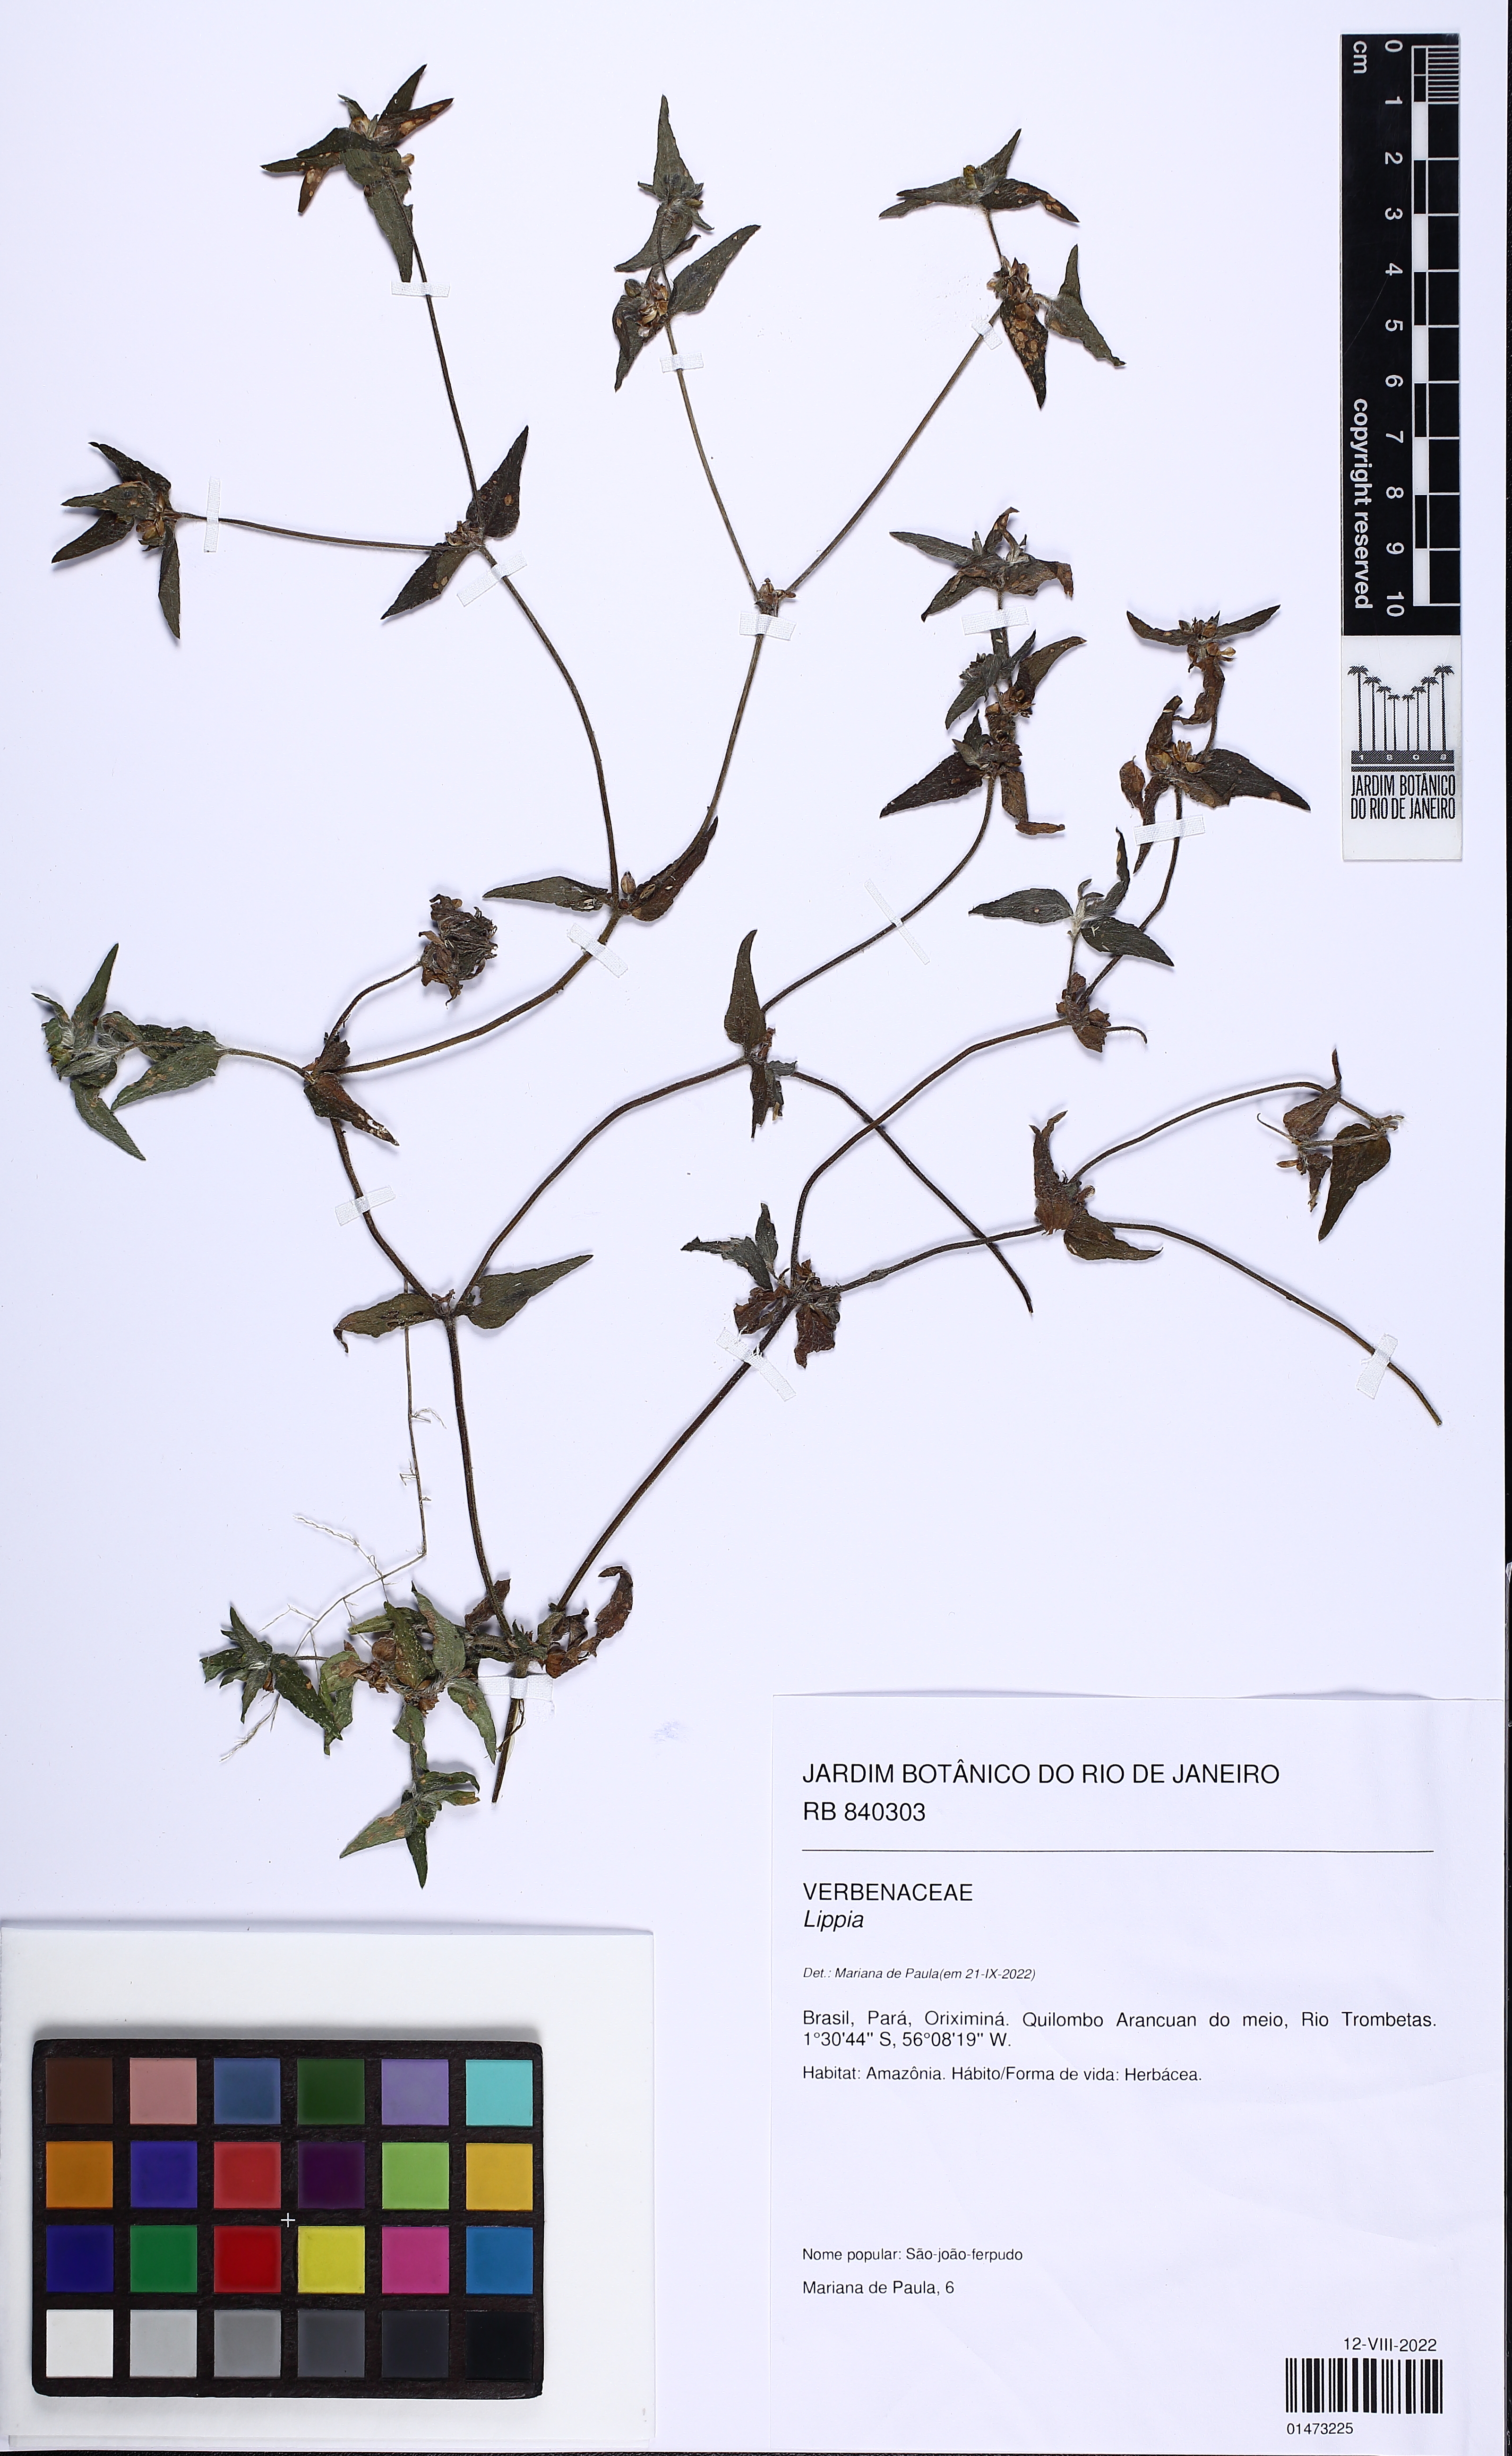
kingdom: Plantae
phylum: Tracheophyta
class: Magnoliopsida
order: Asterales
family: Asteraceae
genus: Unxia
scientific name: Unxia camphorata
